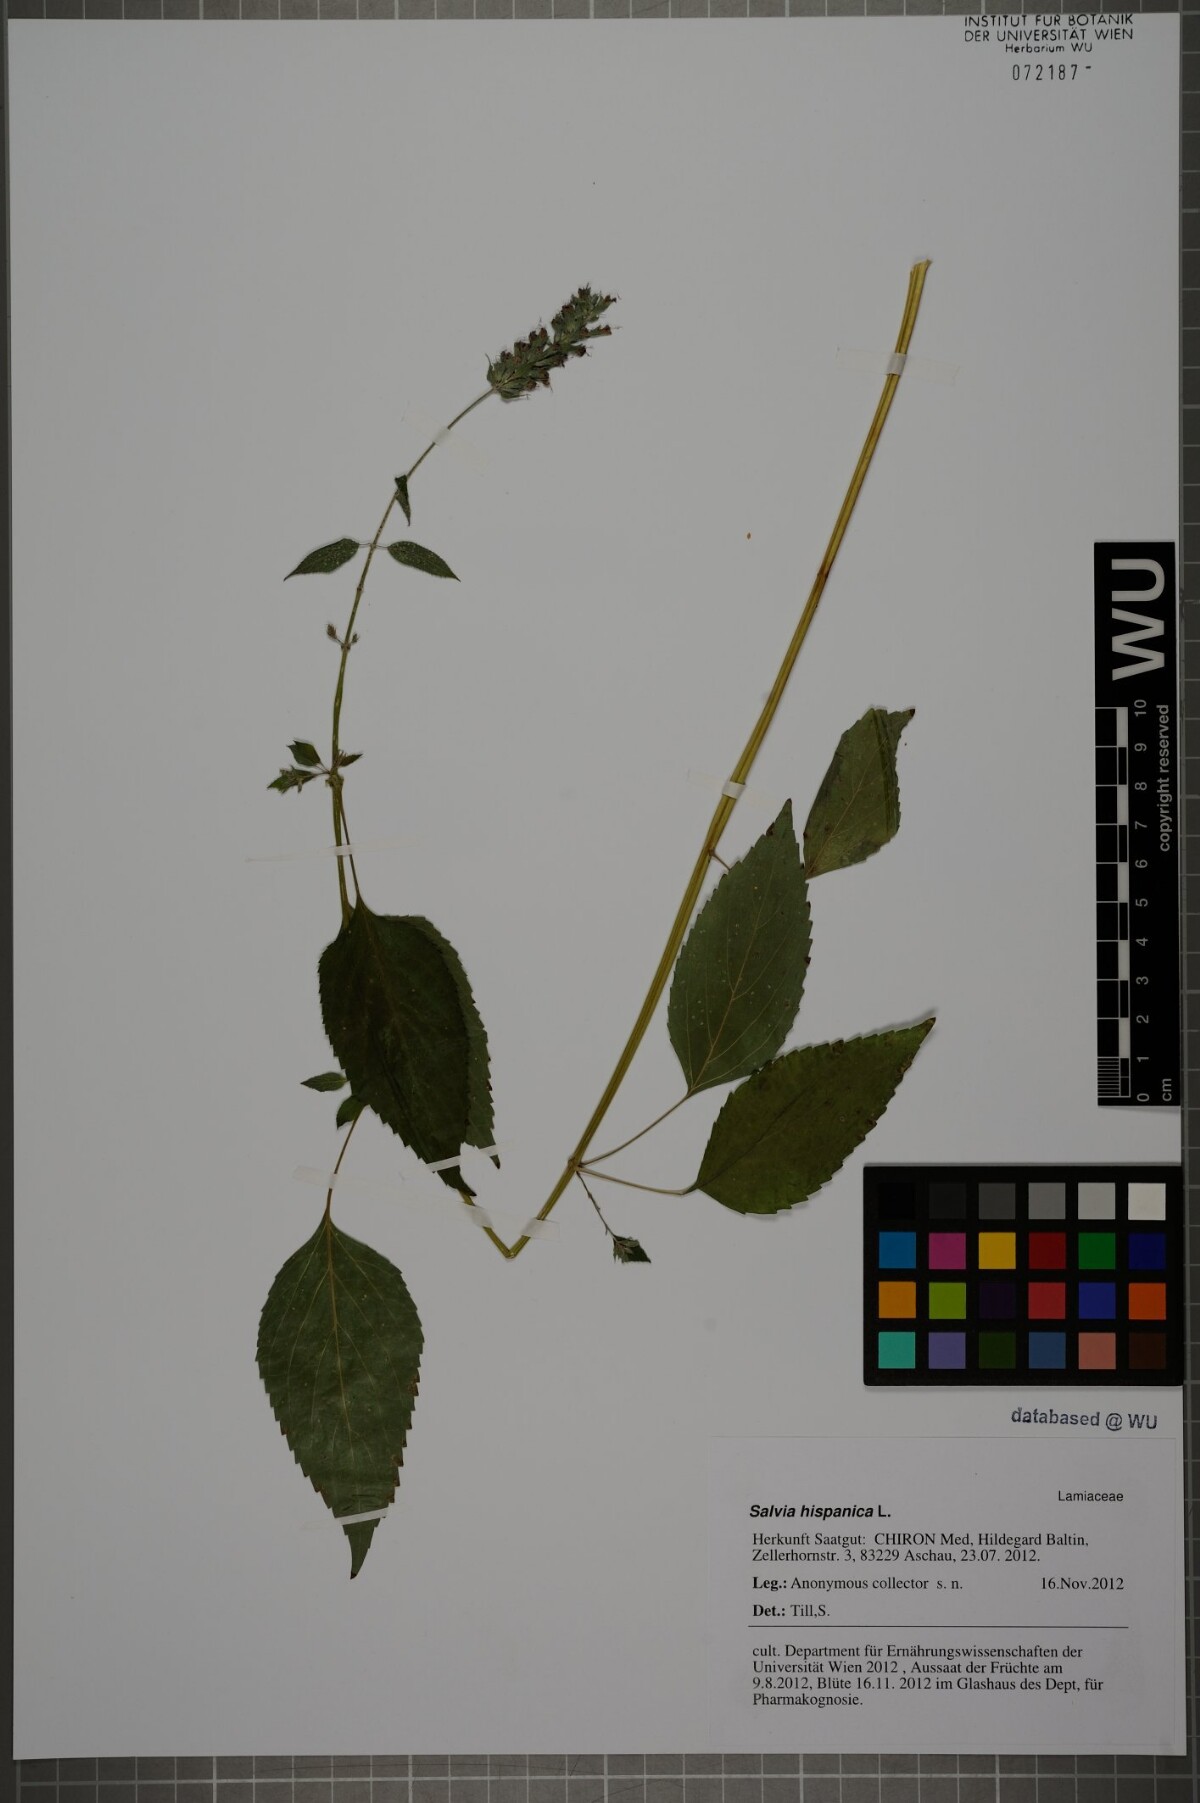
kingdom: Plantae
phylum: Tracheophyta
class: Magnoliopsida
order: Lamiales
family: Lamiaceae
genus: Salvia
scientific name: Salvia hispanica
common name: Chia
